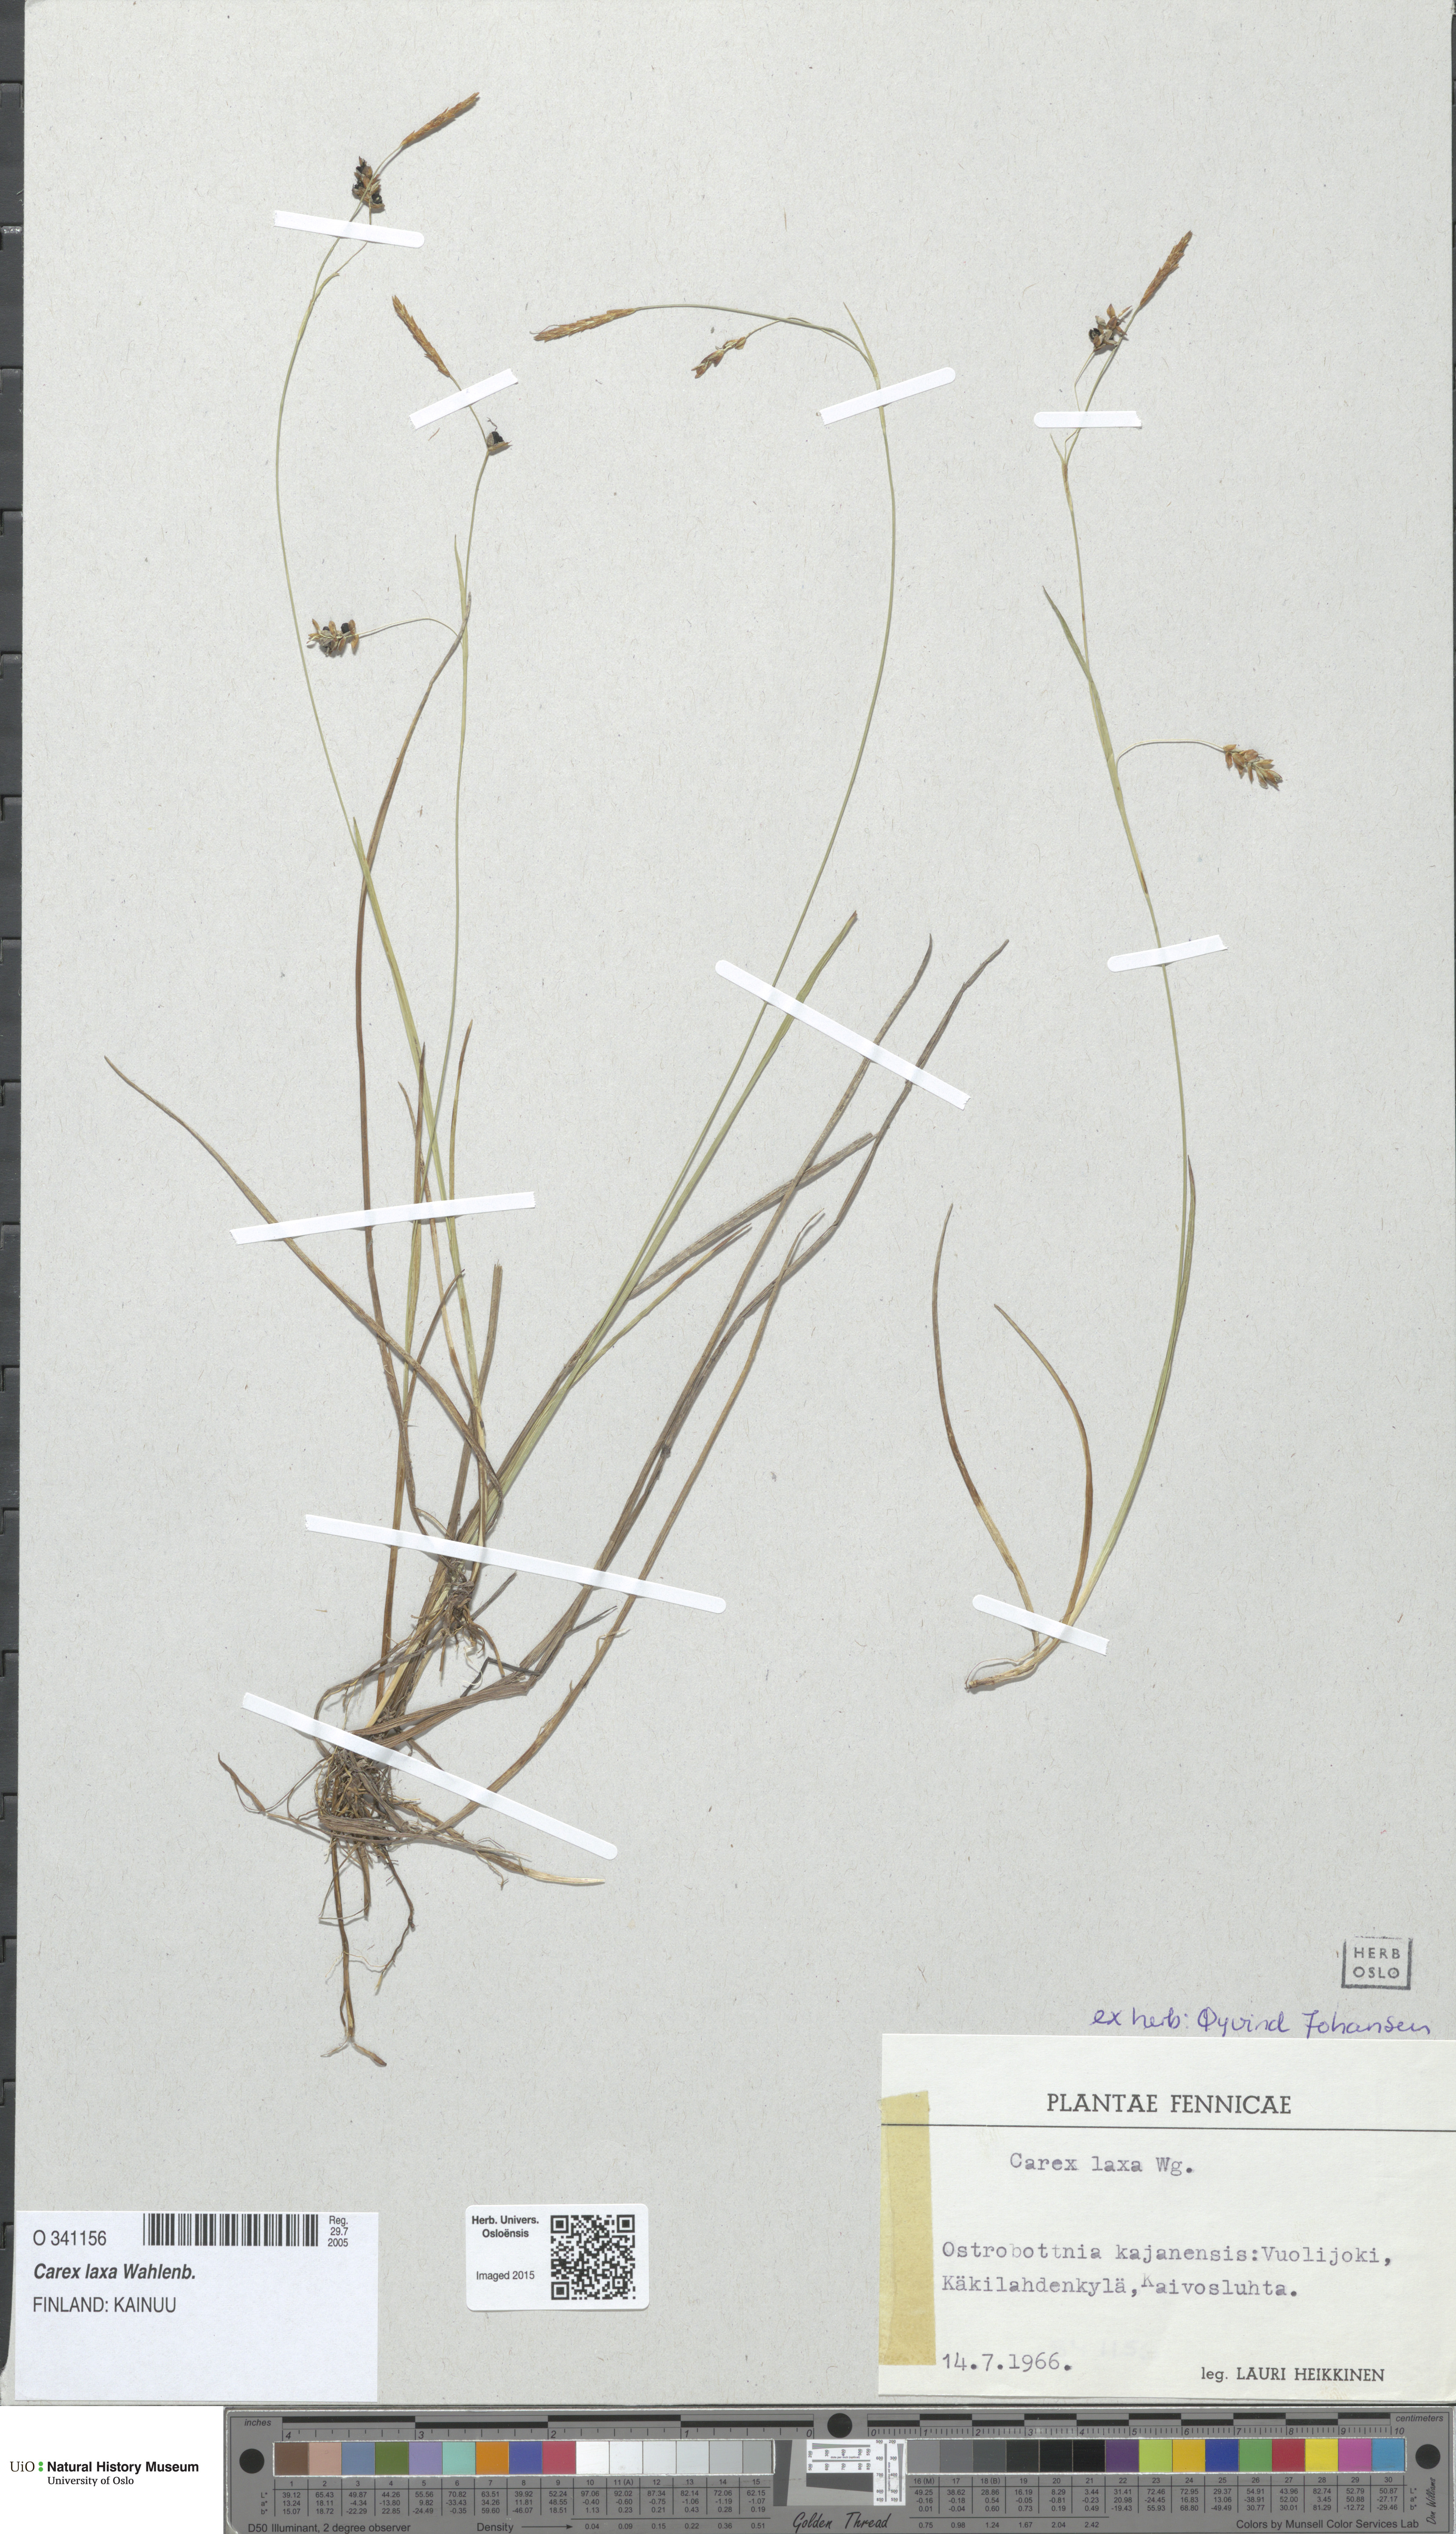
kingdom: Plantae
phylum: Tracheophyta
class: Liliopsida
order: Poales
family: Cyperaceae
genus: Carex
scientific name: Carex laxa
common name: Weak sedge
